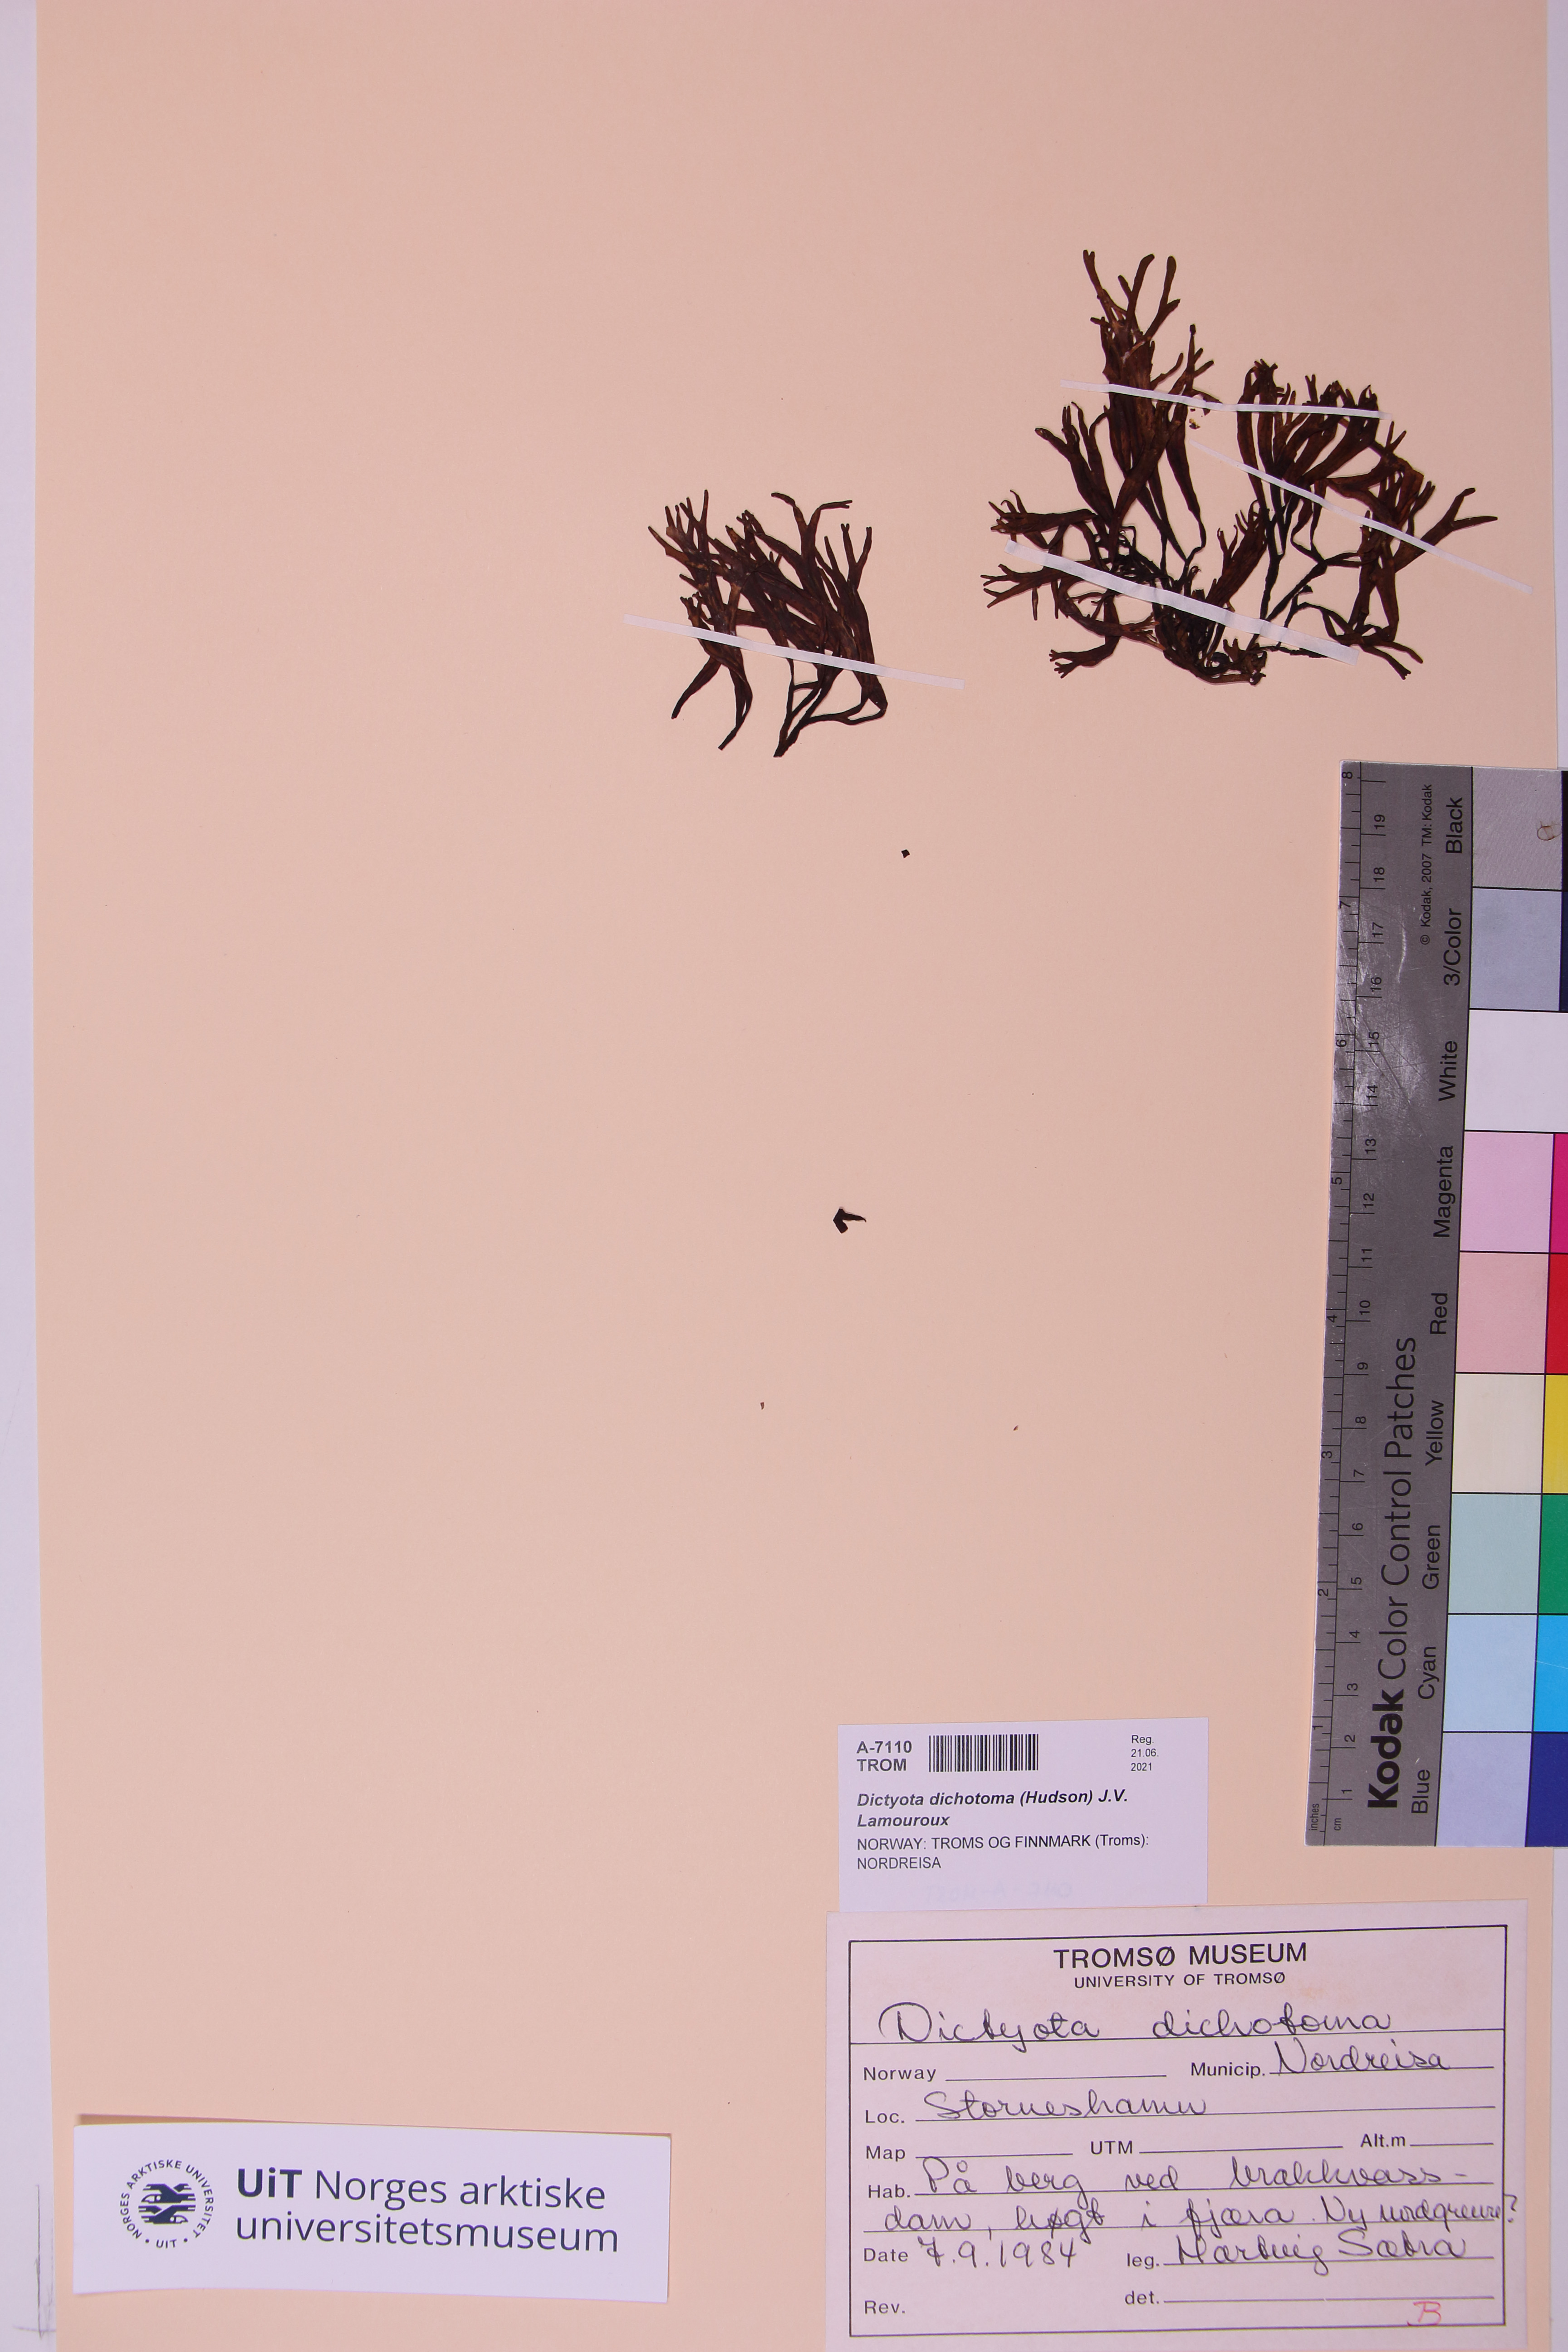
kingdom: Chromista
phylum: Ochrophyta
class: Phaeophyceae
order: Fucales
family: Fucaceae
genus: Fucus
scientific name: Fucus distichus
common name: Rockweed
